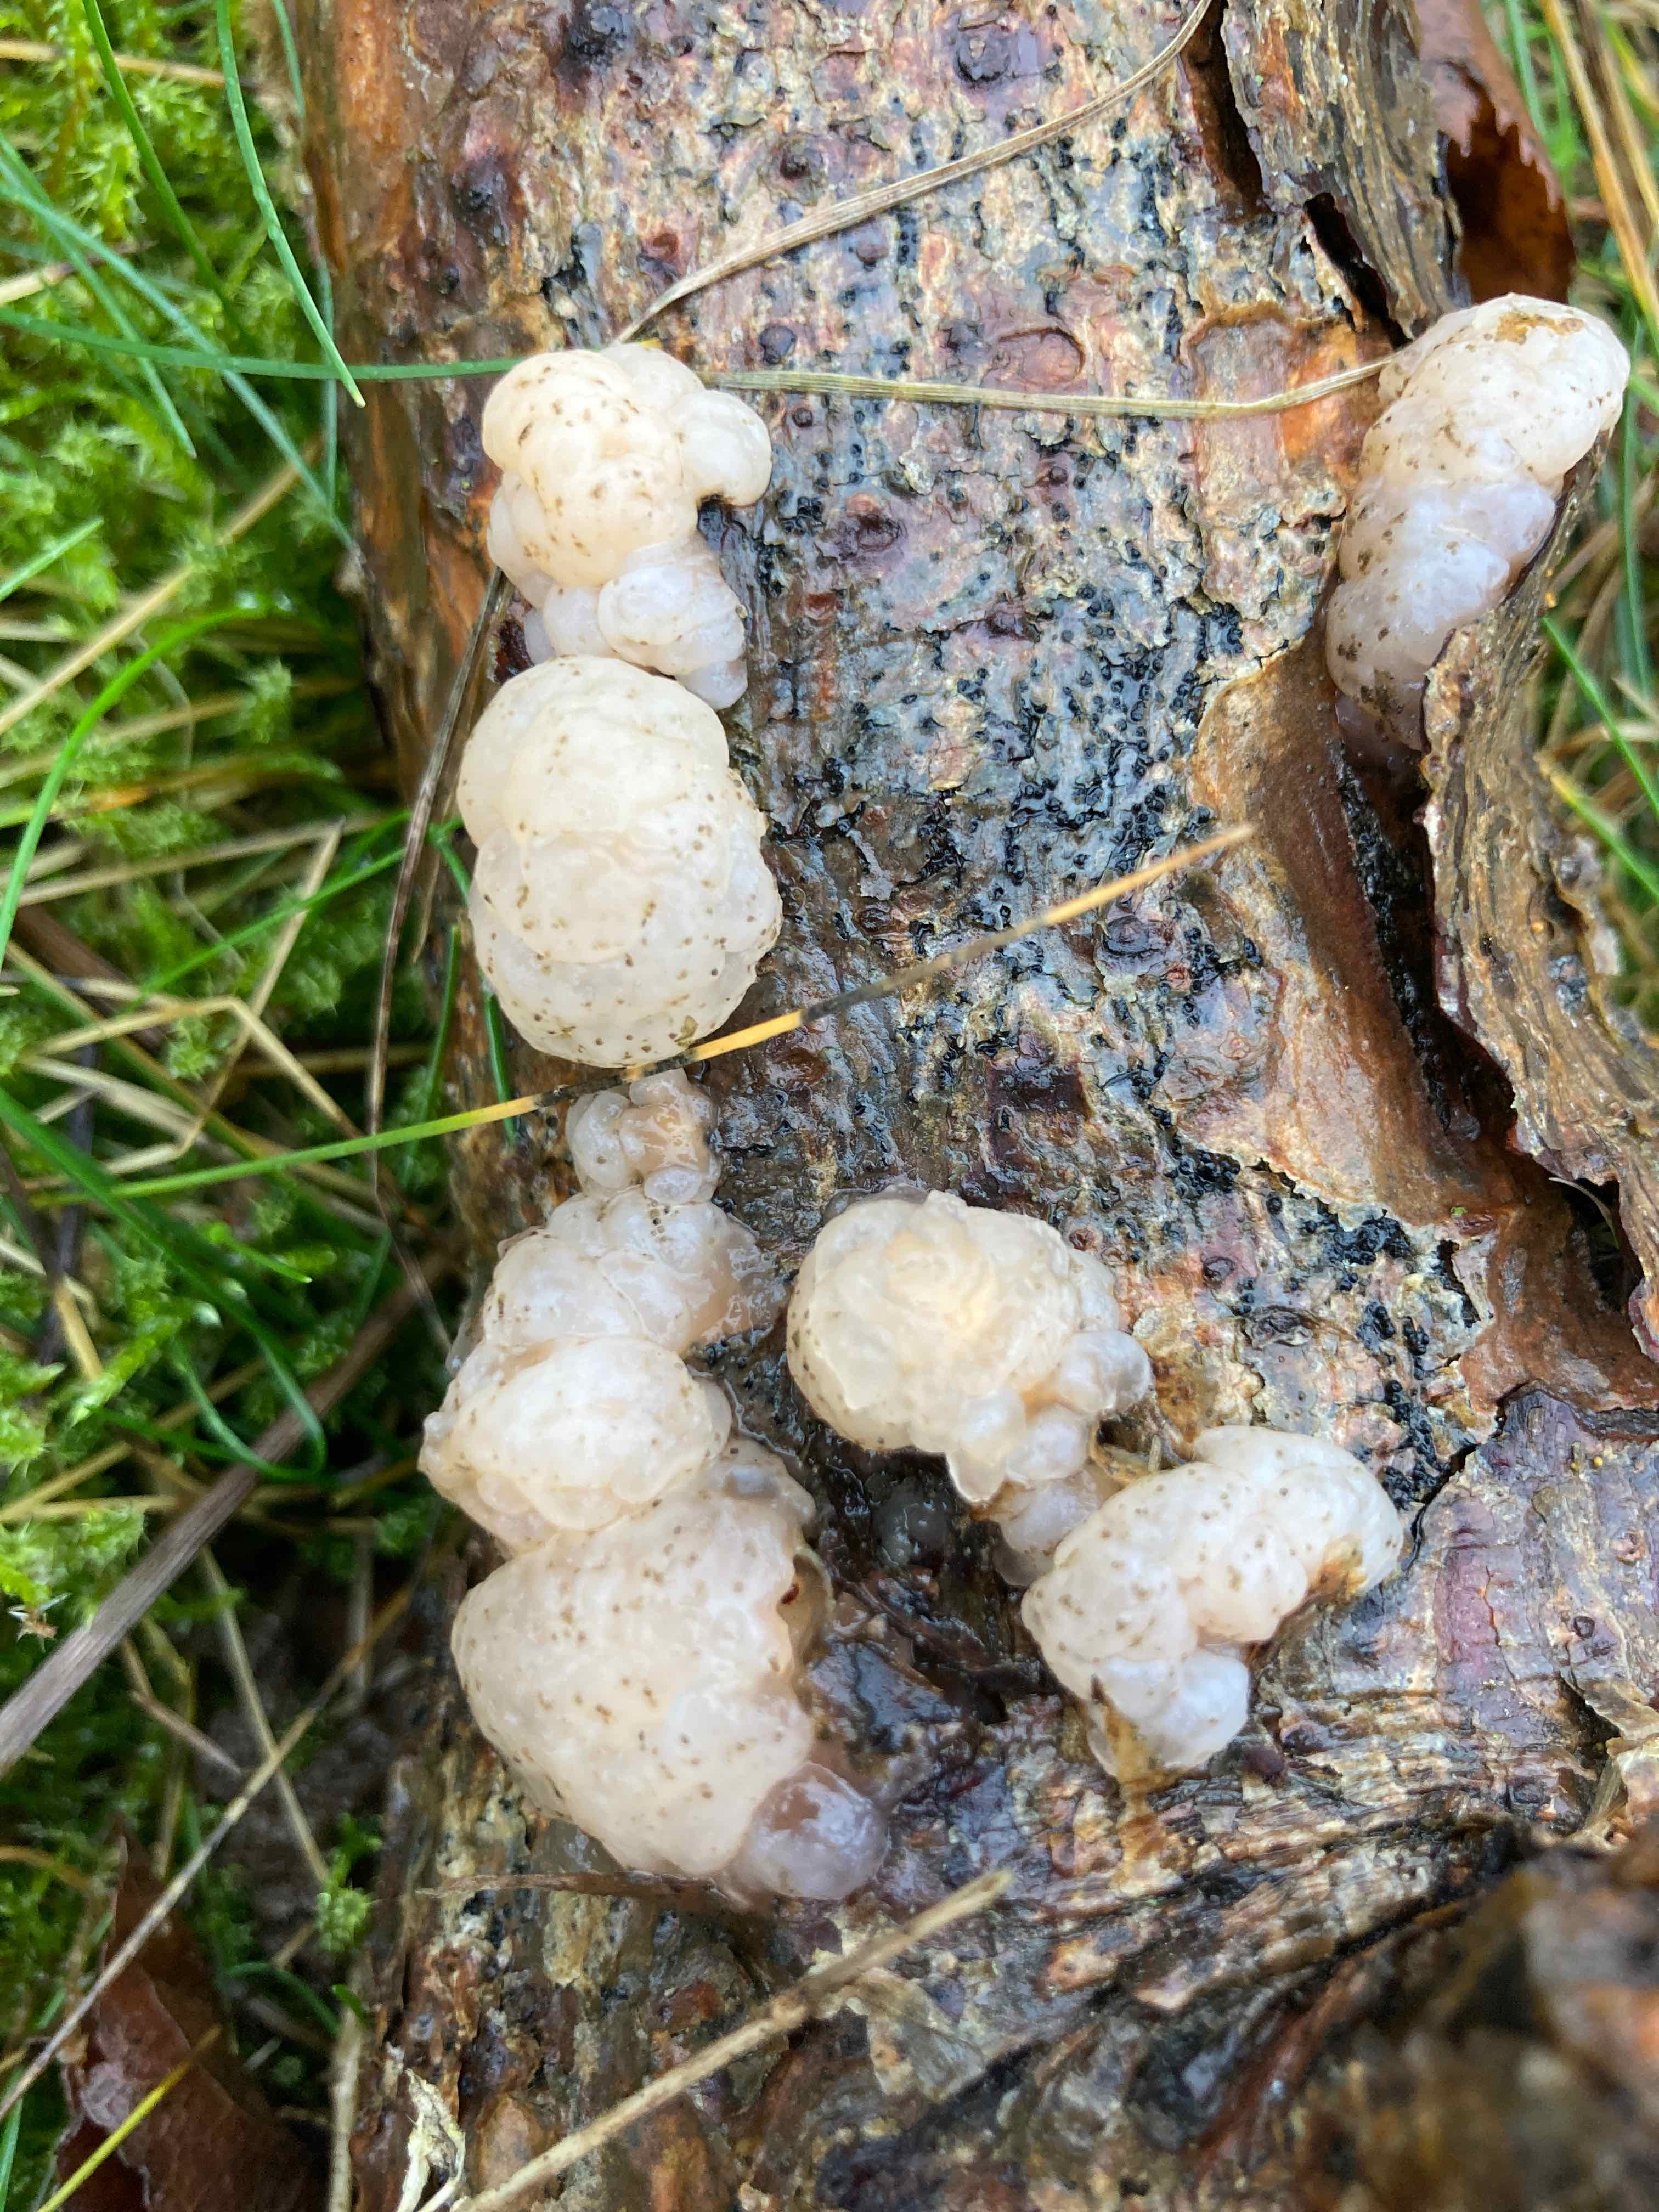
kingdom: Fungi
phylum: Basidiomycota
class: Tremellomycetes
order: Tremellales
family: Naemateliaceae
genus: Naematelia
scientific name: Naematelia encephala
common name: fyrre-bævresvamp
